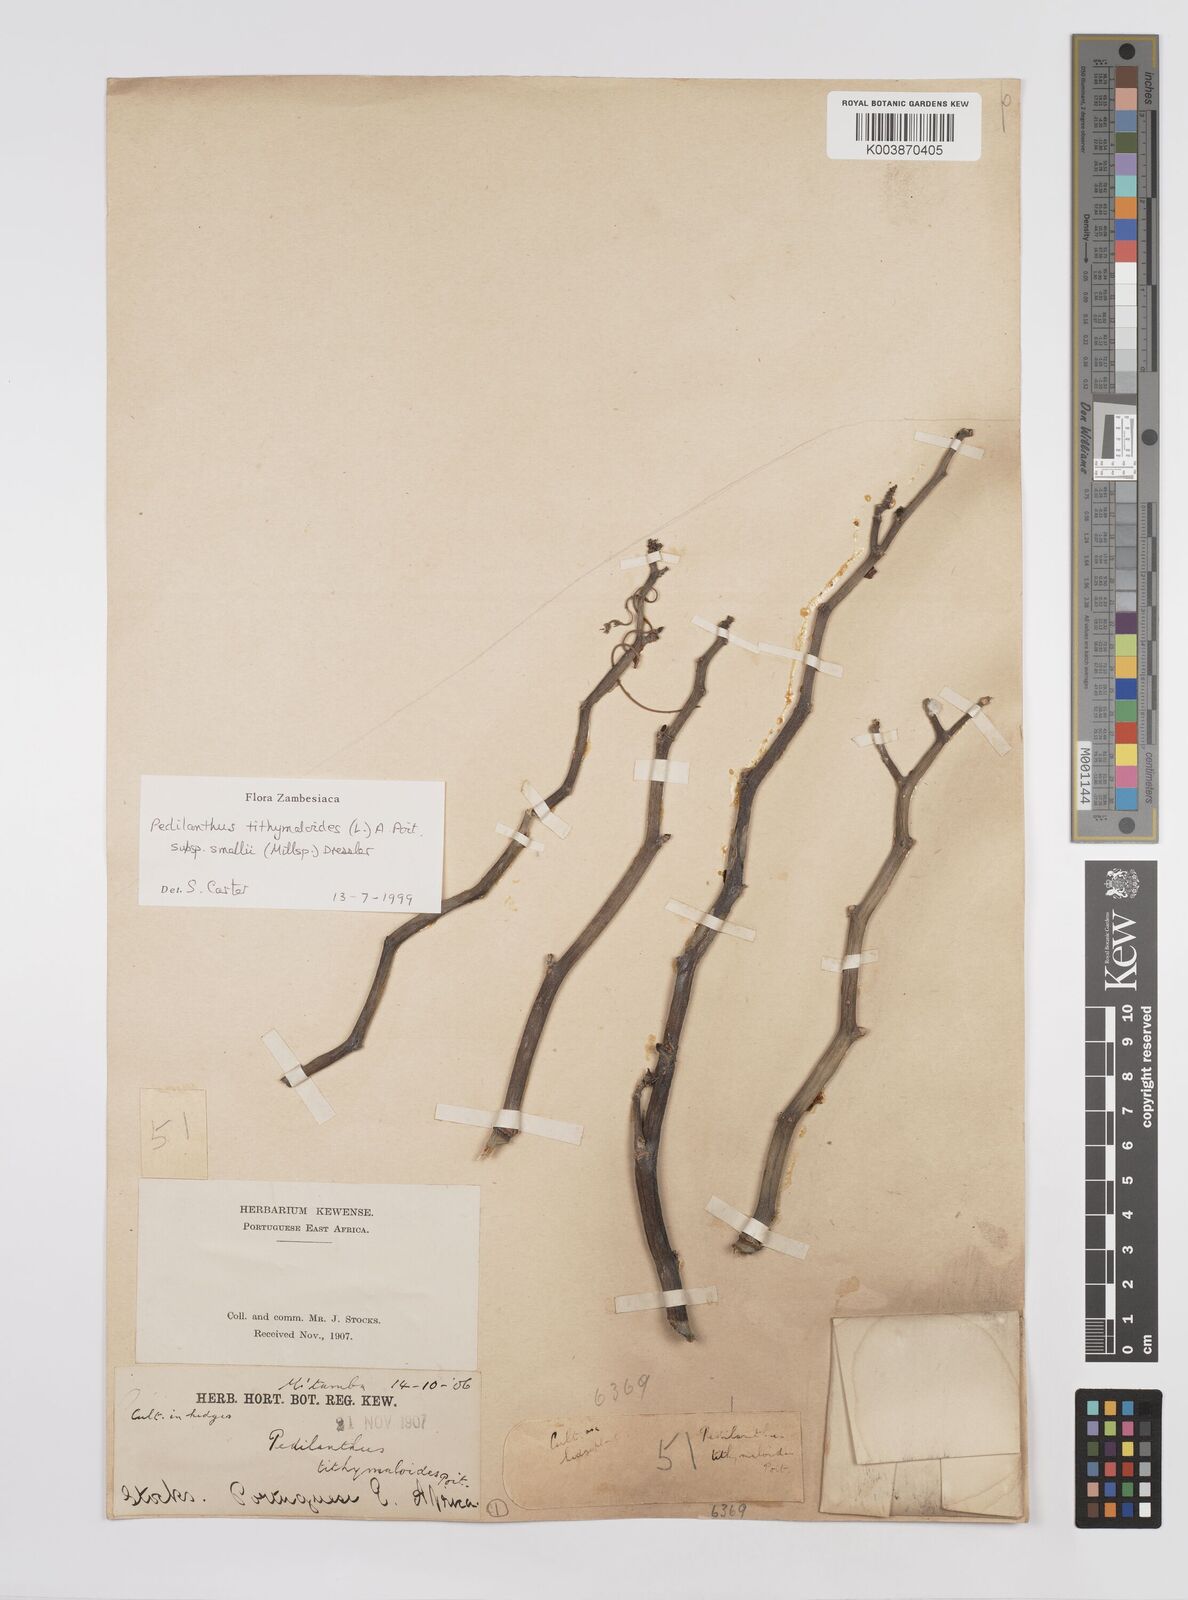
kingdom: Plantae
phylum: Tracheophyta
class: Magnoliopsida
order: Malpighiales
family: Euphorbiaceae
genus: Euphorbia
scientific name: Euphorbia tithymaloides
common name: Slipperplant
